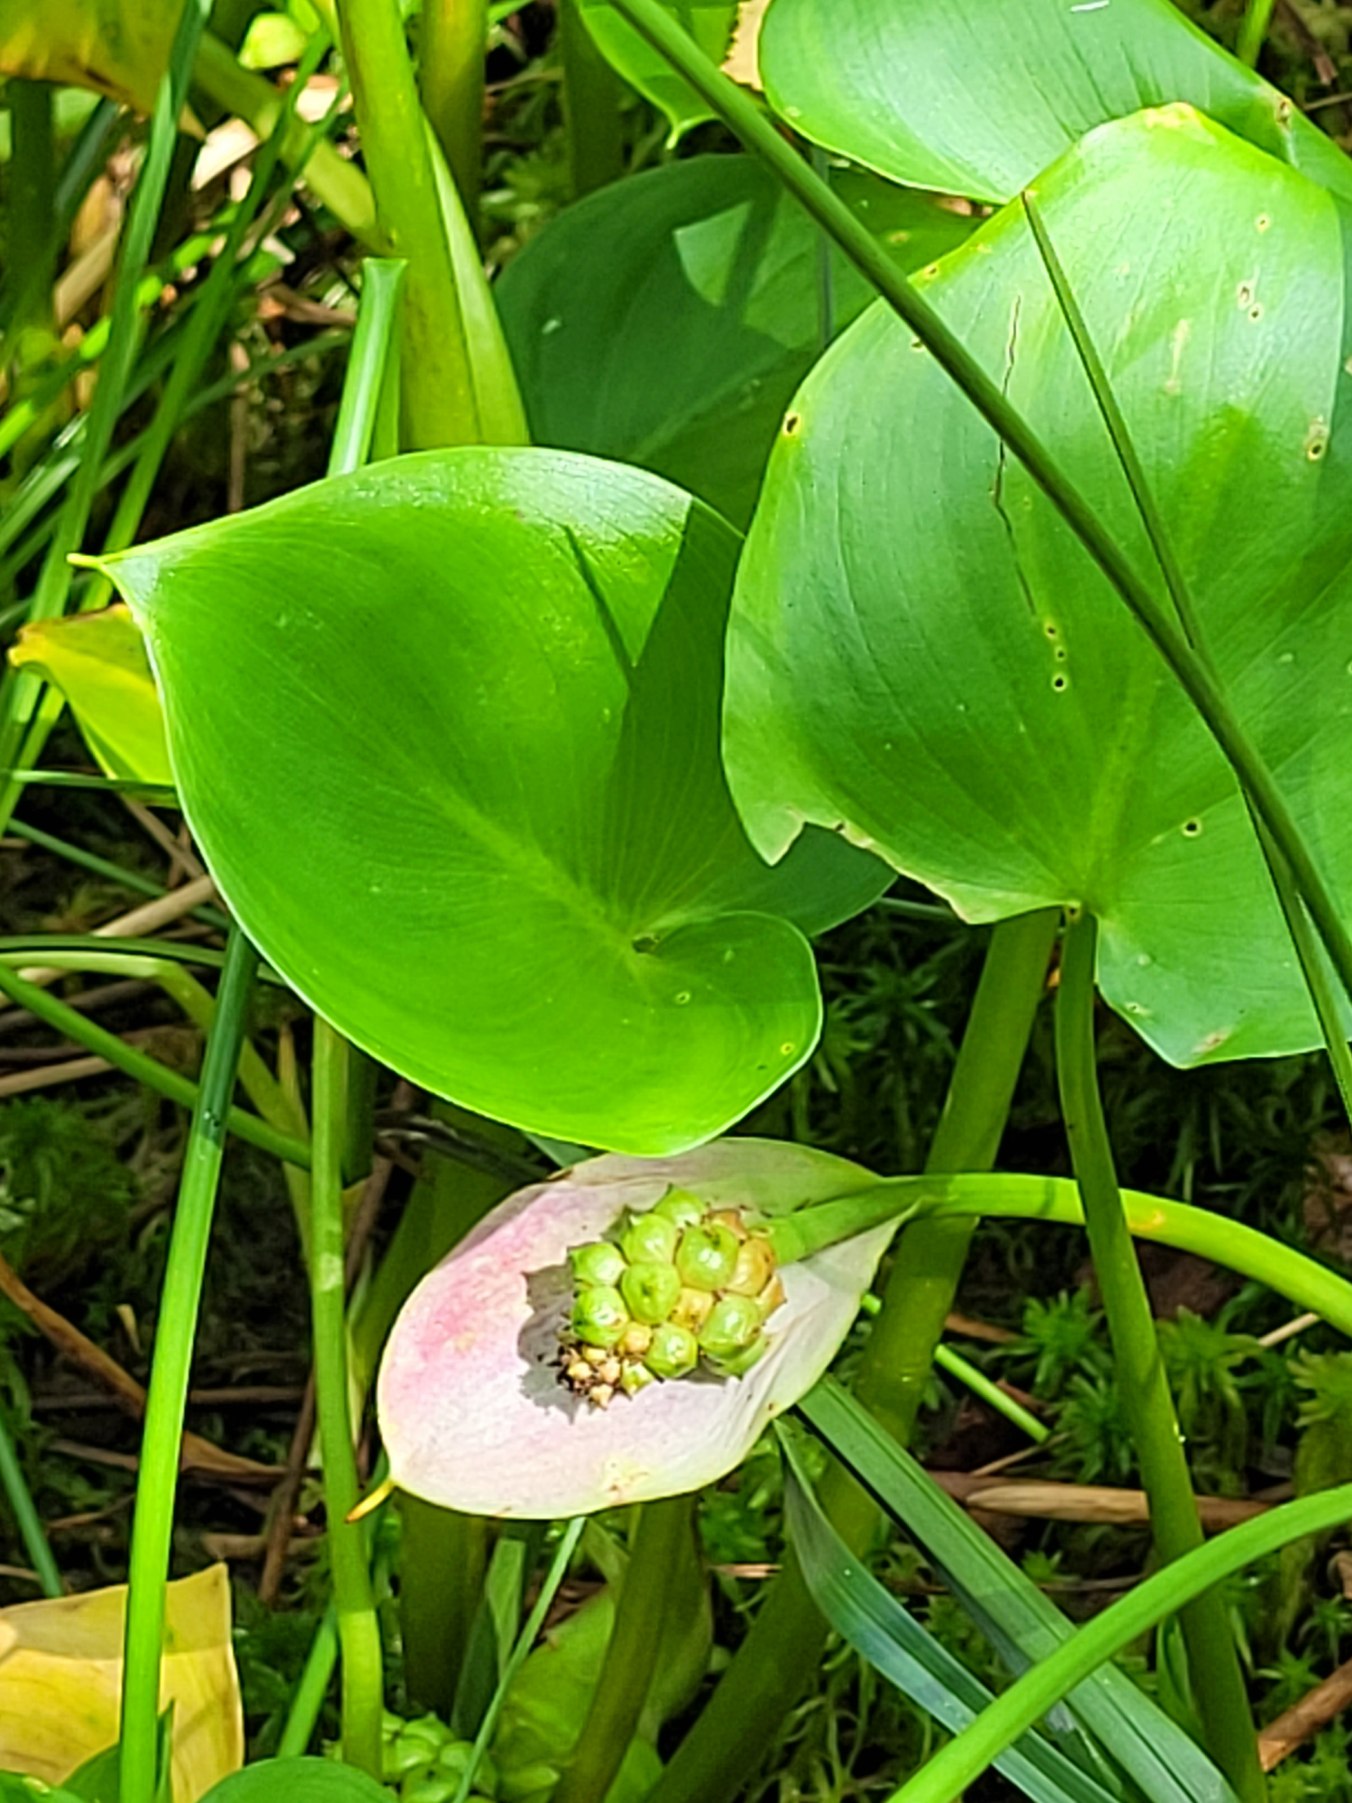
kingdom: Plantae
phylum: Tracheophyta
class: Liliopsida
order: Alismatales
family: Araceae
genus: Calla
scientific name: Calla palustris
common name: Kærmysse
